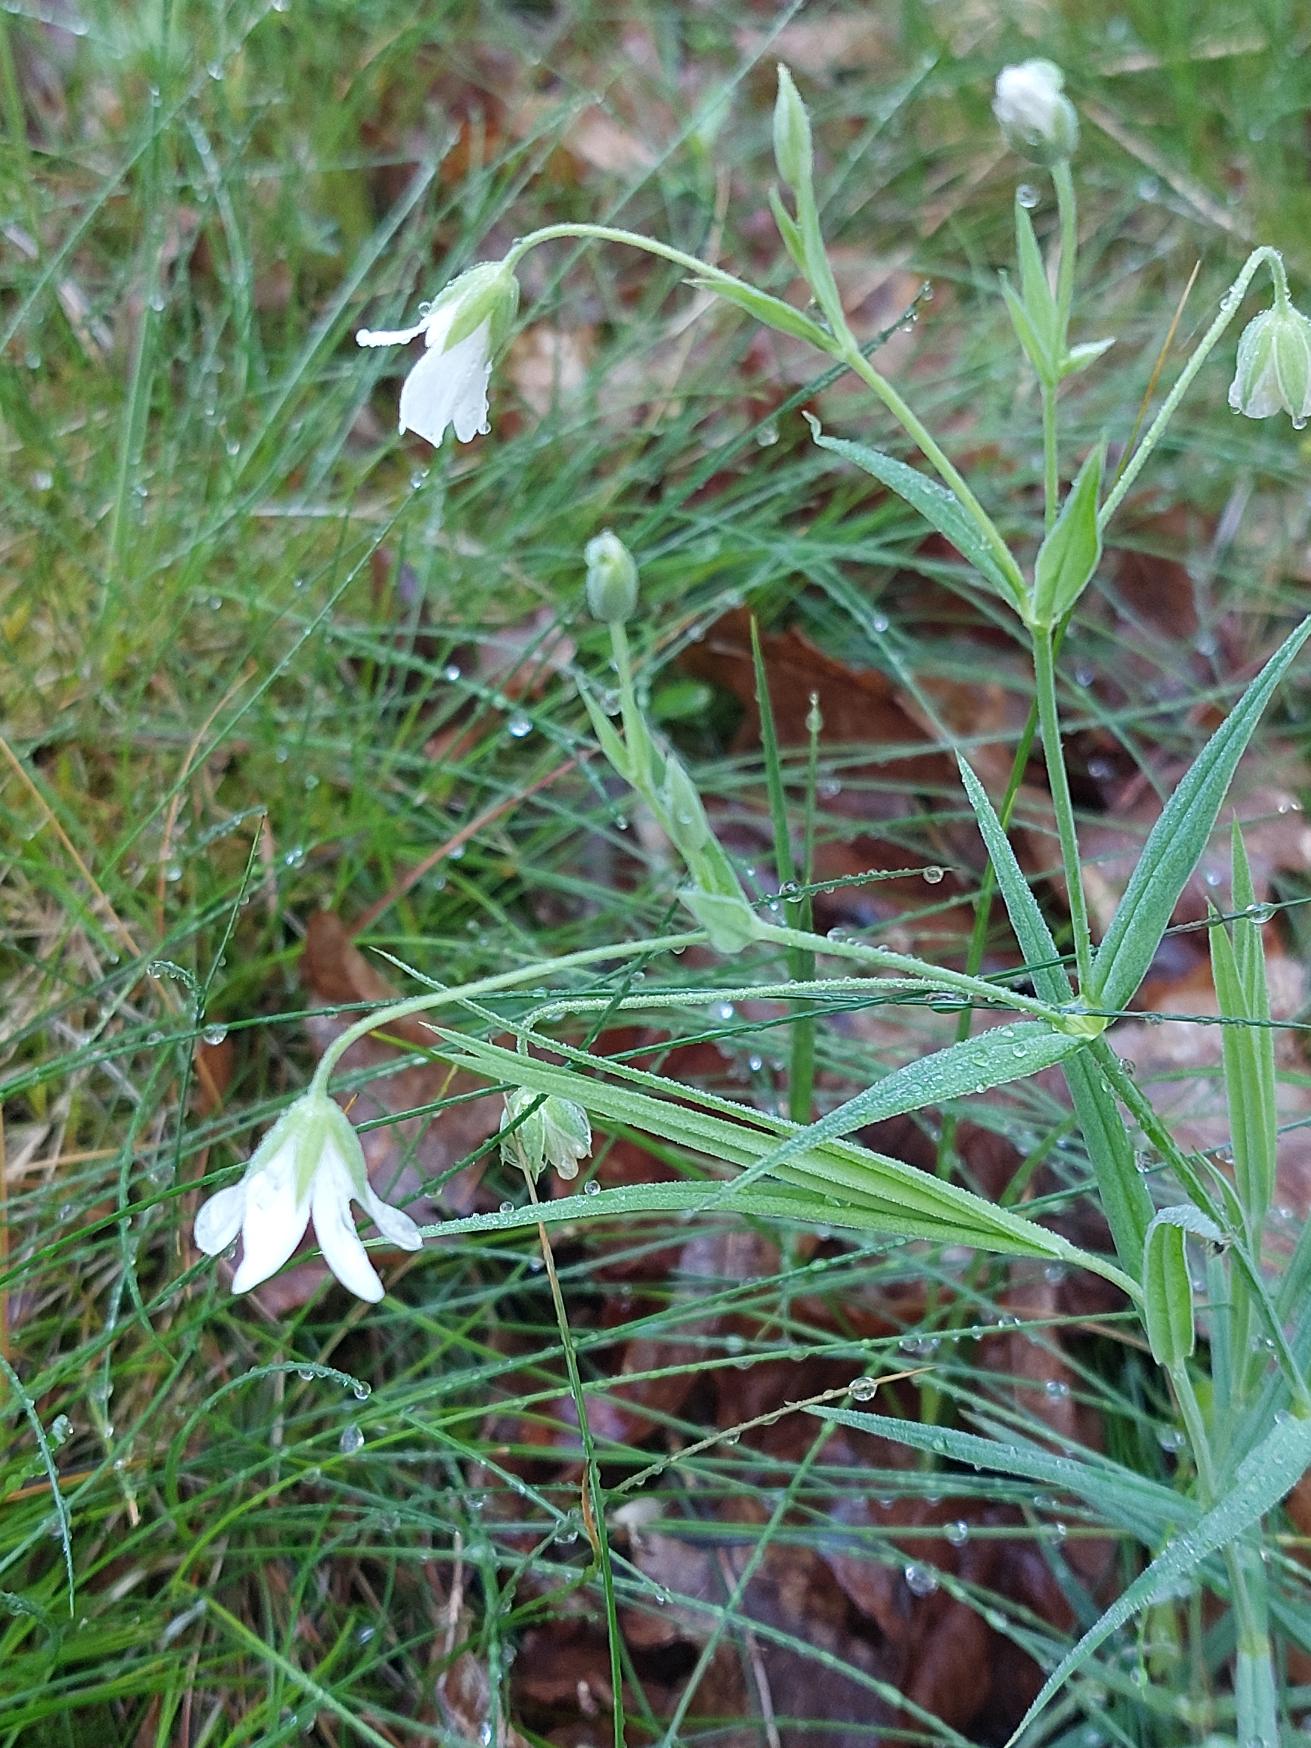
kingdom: Plantae
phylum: Tracheophyta
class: Magnoliopsida
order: Caryophyllales
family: Caryophyllaceae
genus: Rabelera
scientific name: Rabelera holostea
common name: Stor fladstjerne
